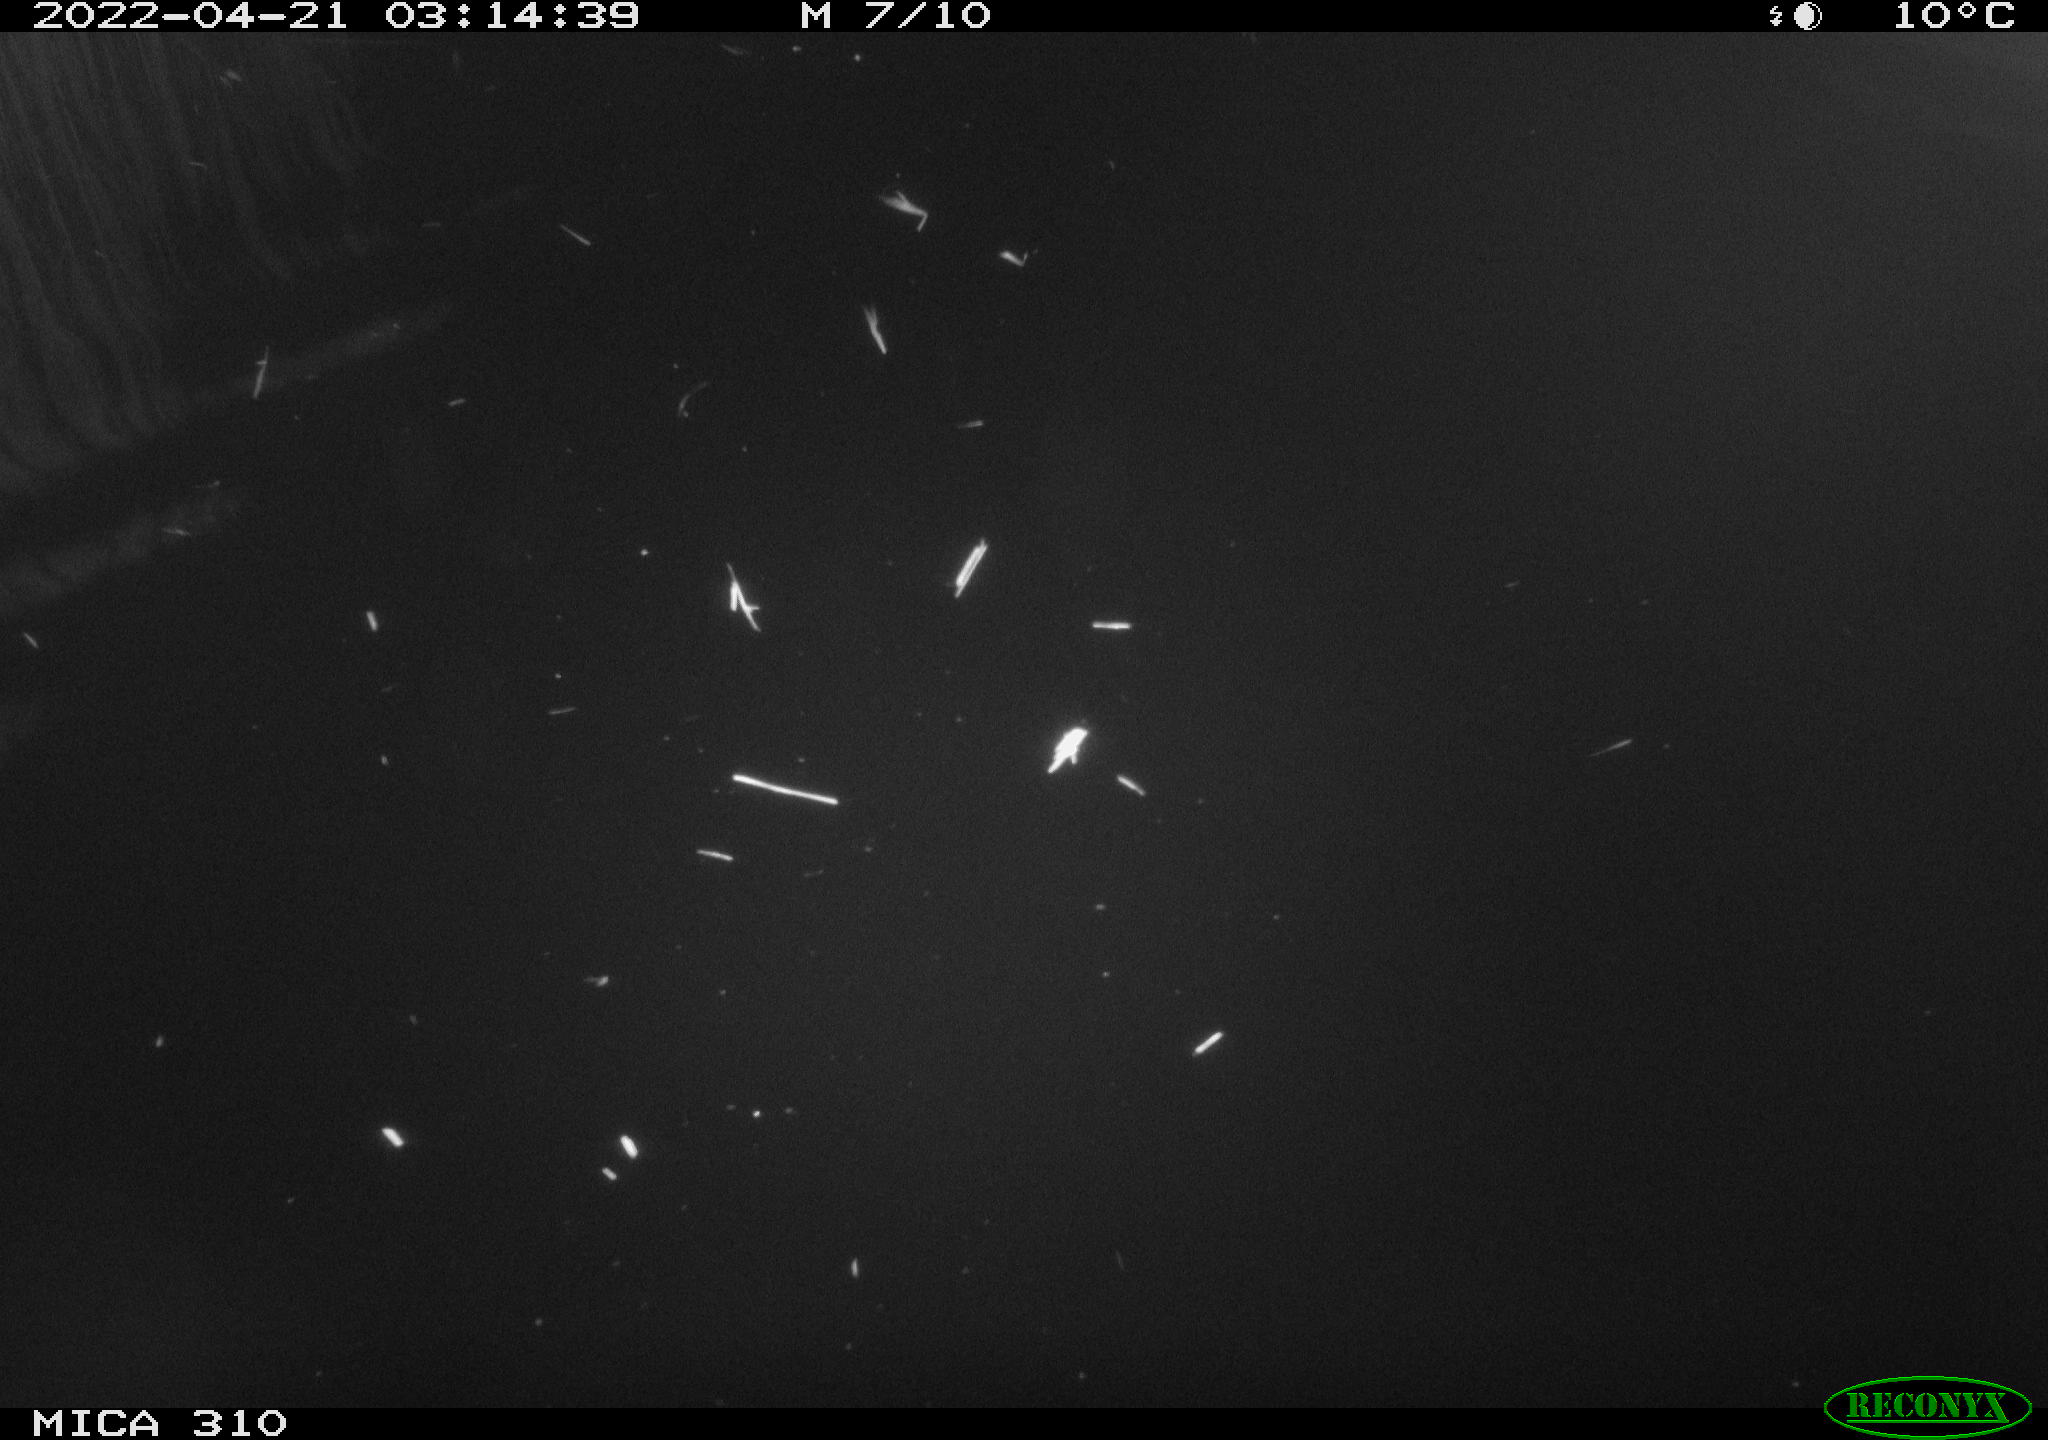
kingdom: Animalia
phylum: Chordata
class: Aves
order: Anseriformes
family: Anatidae
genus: Anas
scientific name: Anas platyrhynchos
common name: Mallard
